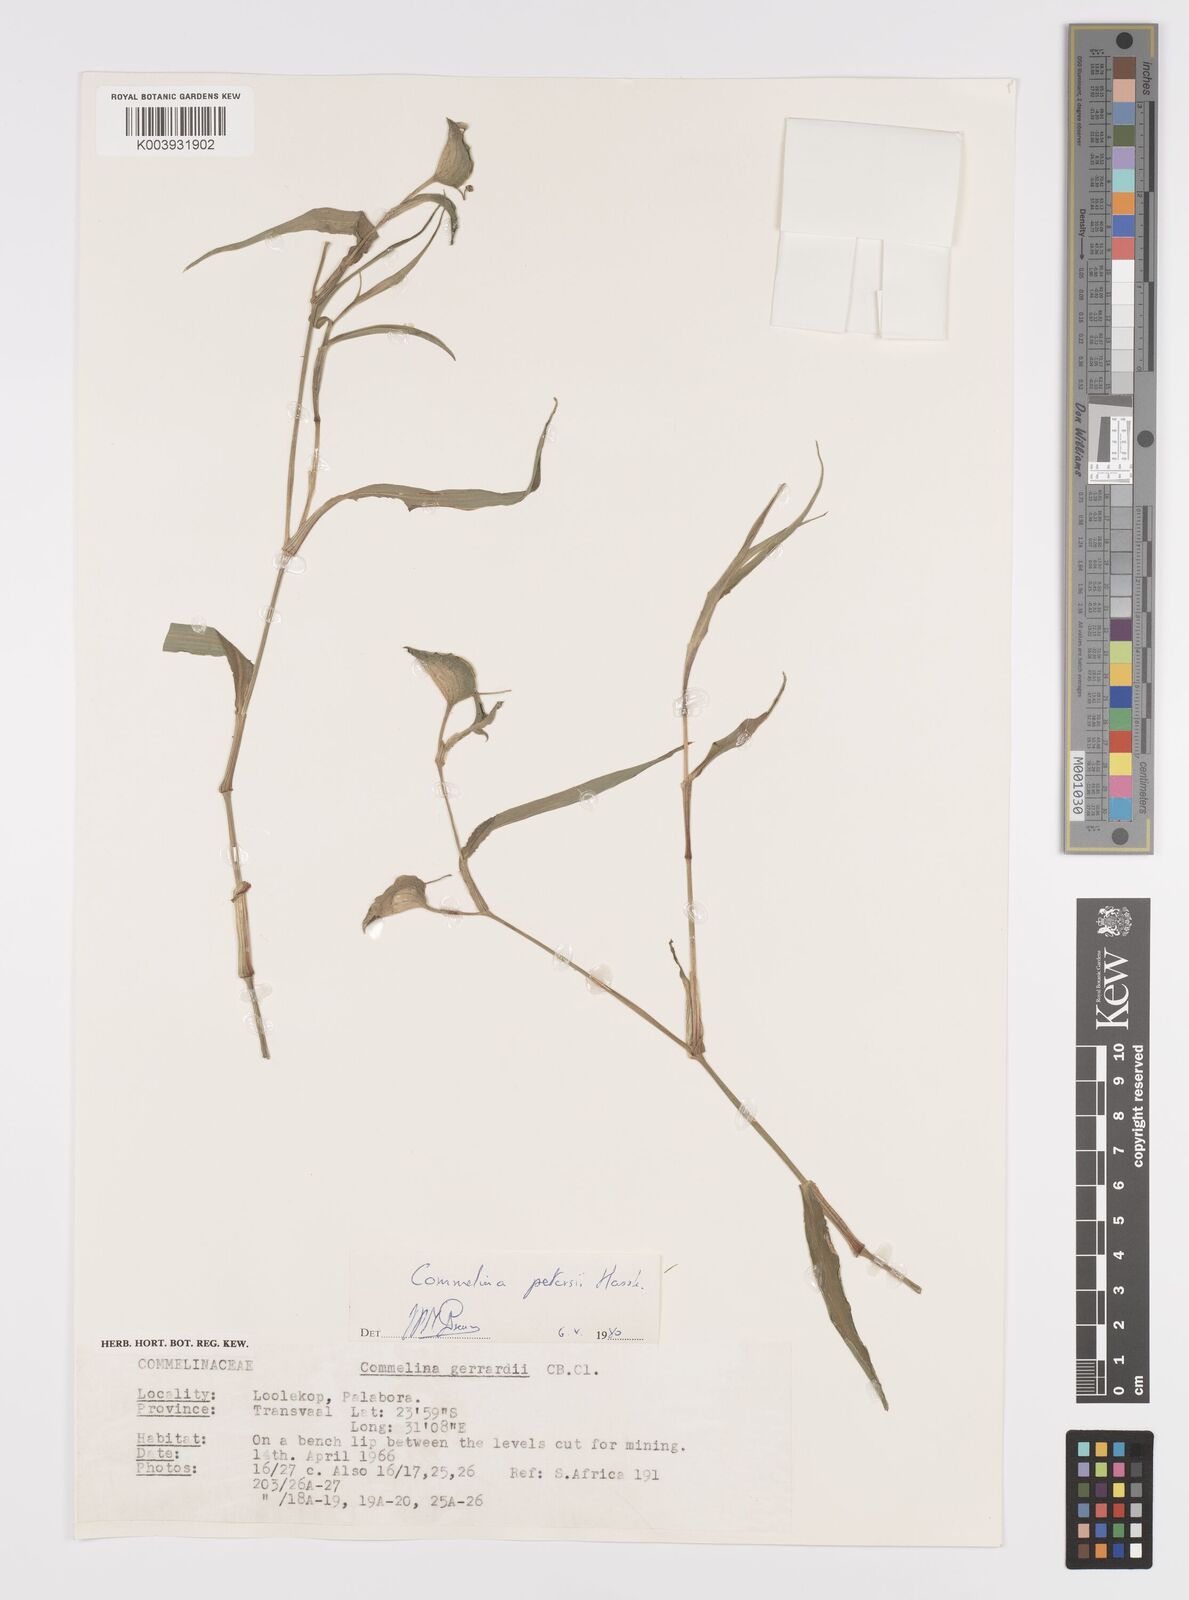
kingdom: Plantae
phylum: Tracheophyta
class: Liliopsida
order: Commelinales
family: Commelinaceae
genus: Commelina
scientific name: Commelina petersii
